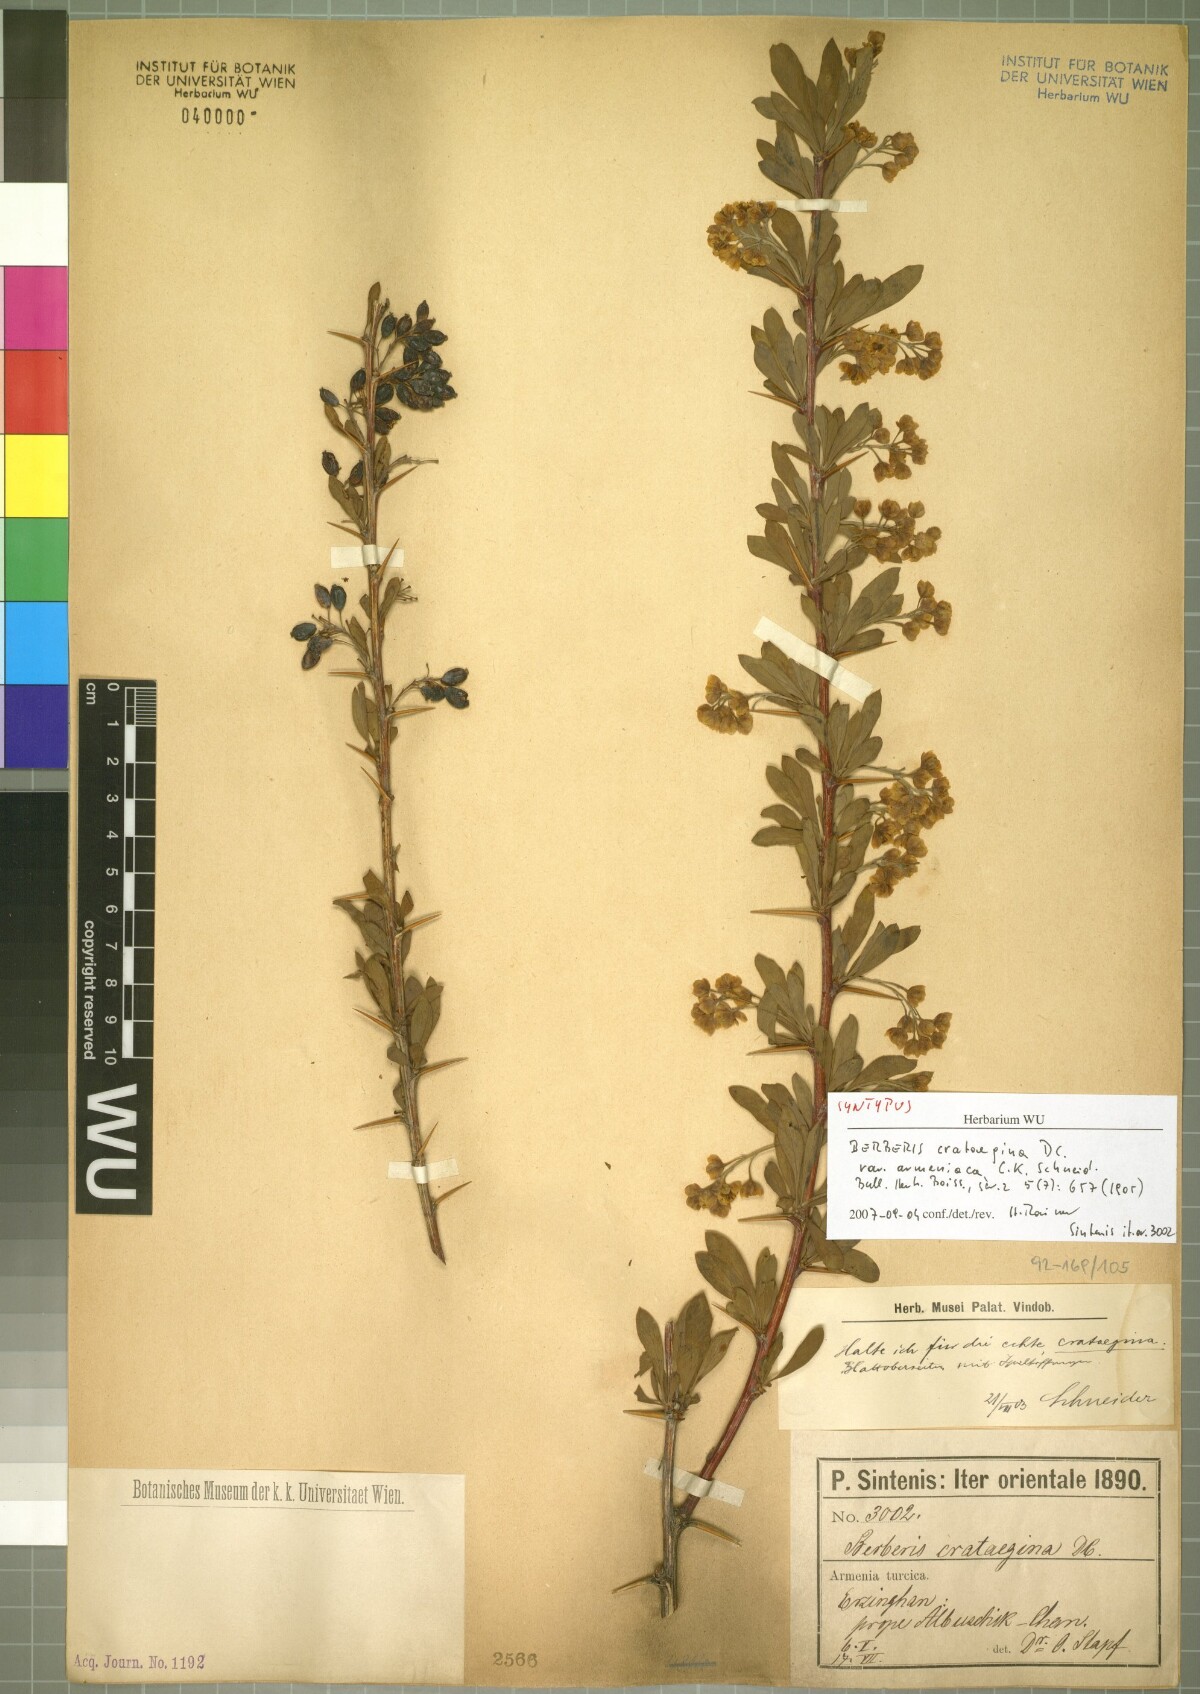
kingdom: Plantae
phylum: Tracheophyta
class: Magnoliopsida
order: Ranunculales
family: Berberidaceae
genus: Berberis
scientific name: Berberis crataegina
